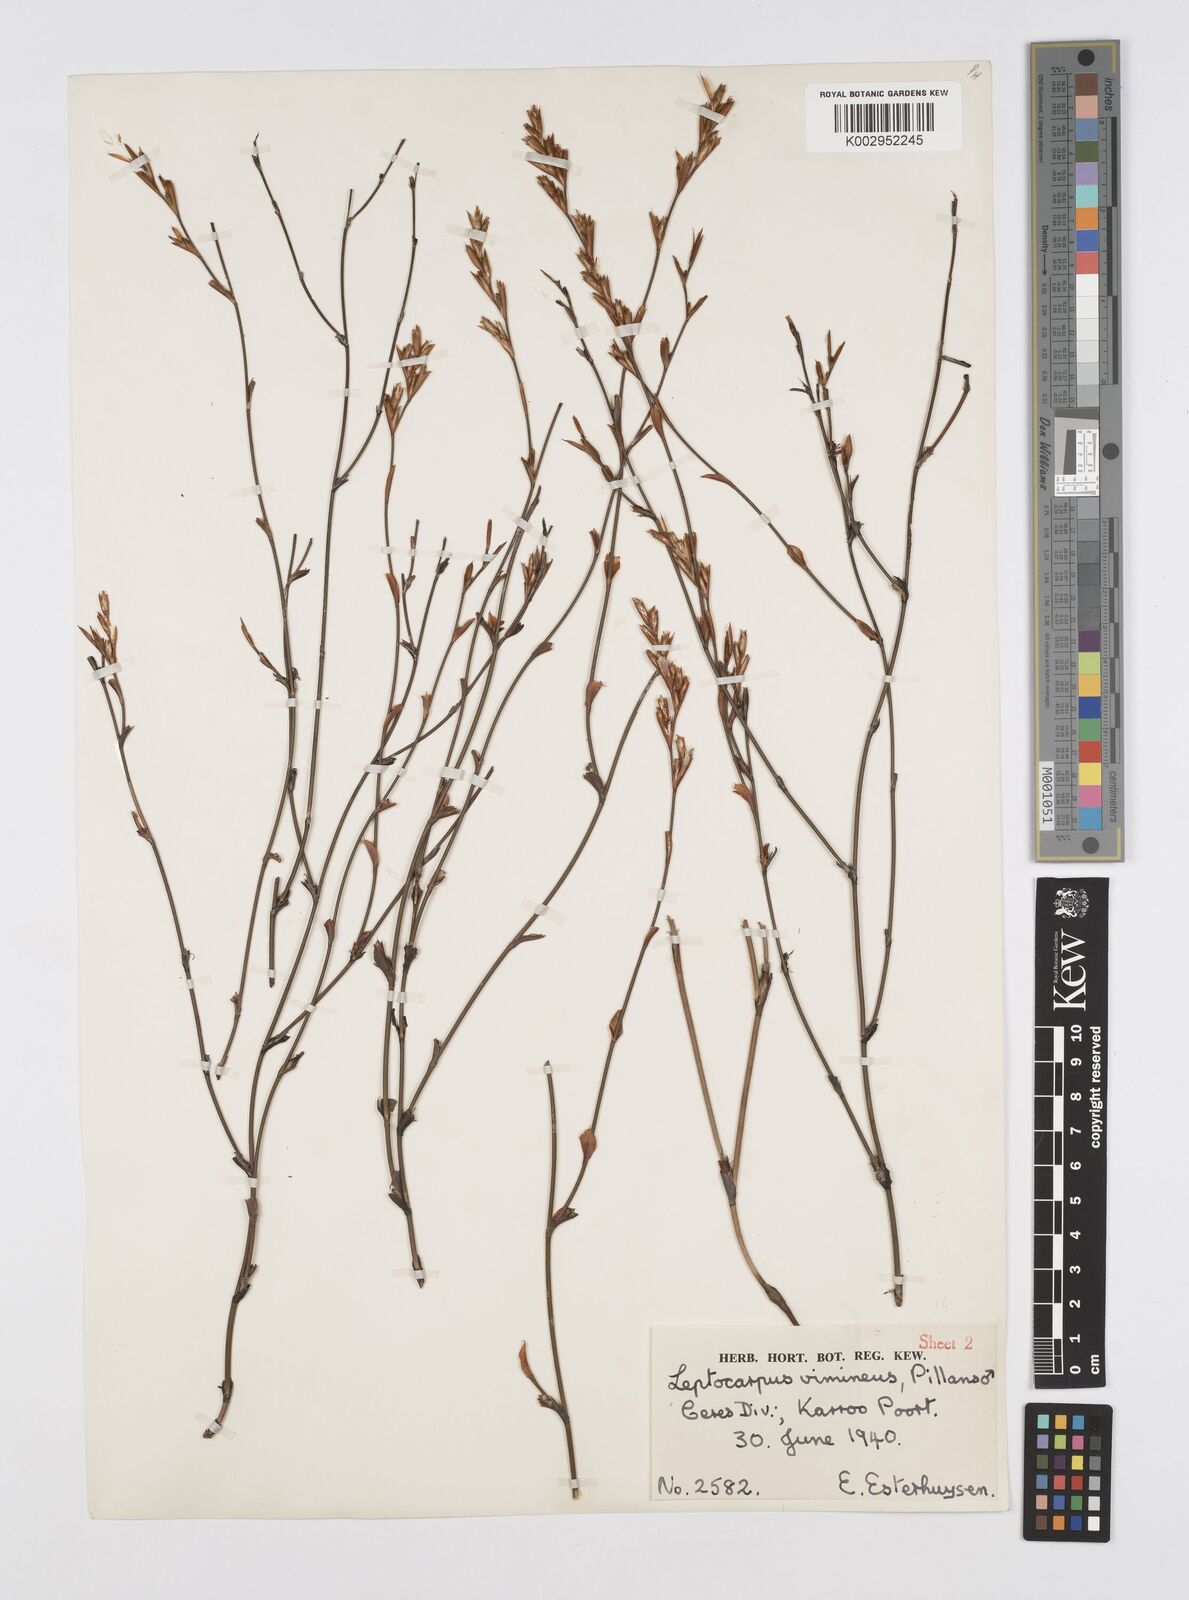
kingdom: Plantae
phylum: Tracheophyta
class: Liliopsida
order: Poales
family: Restionaceae
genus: Restio
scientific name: Restio vimineus
